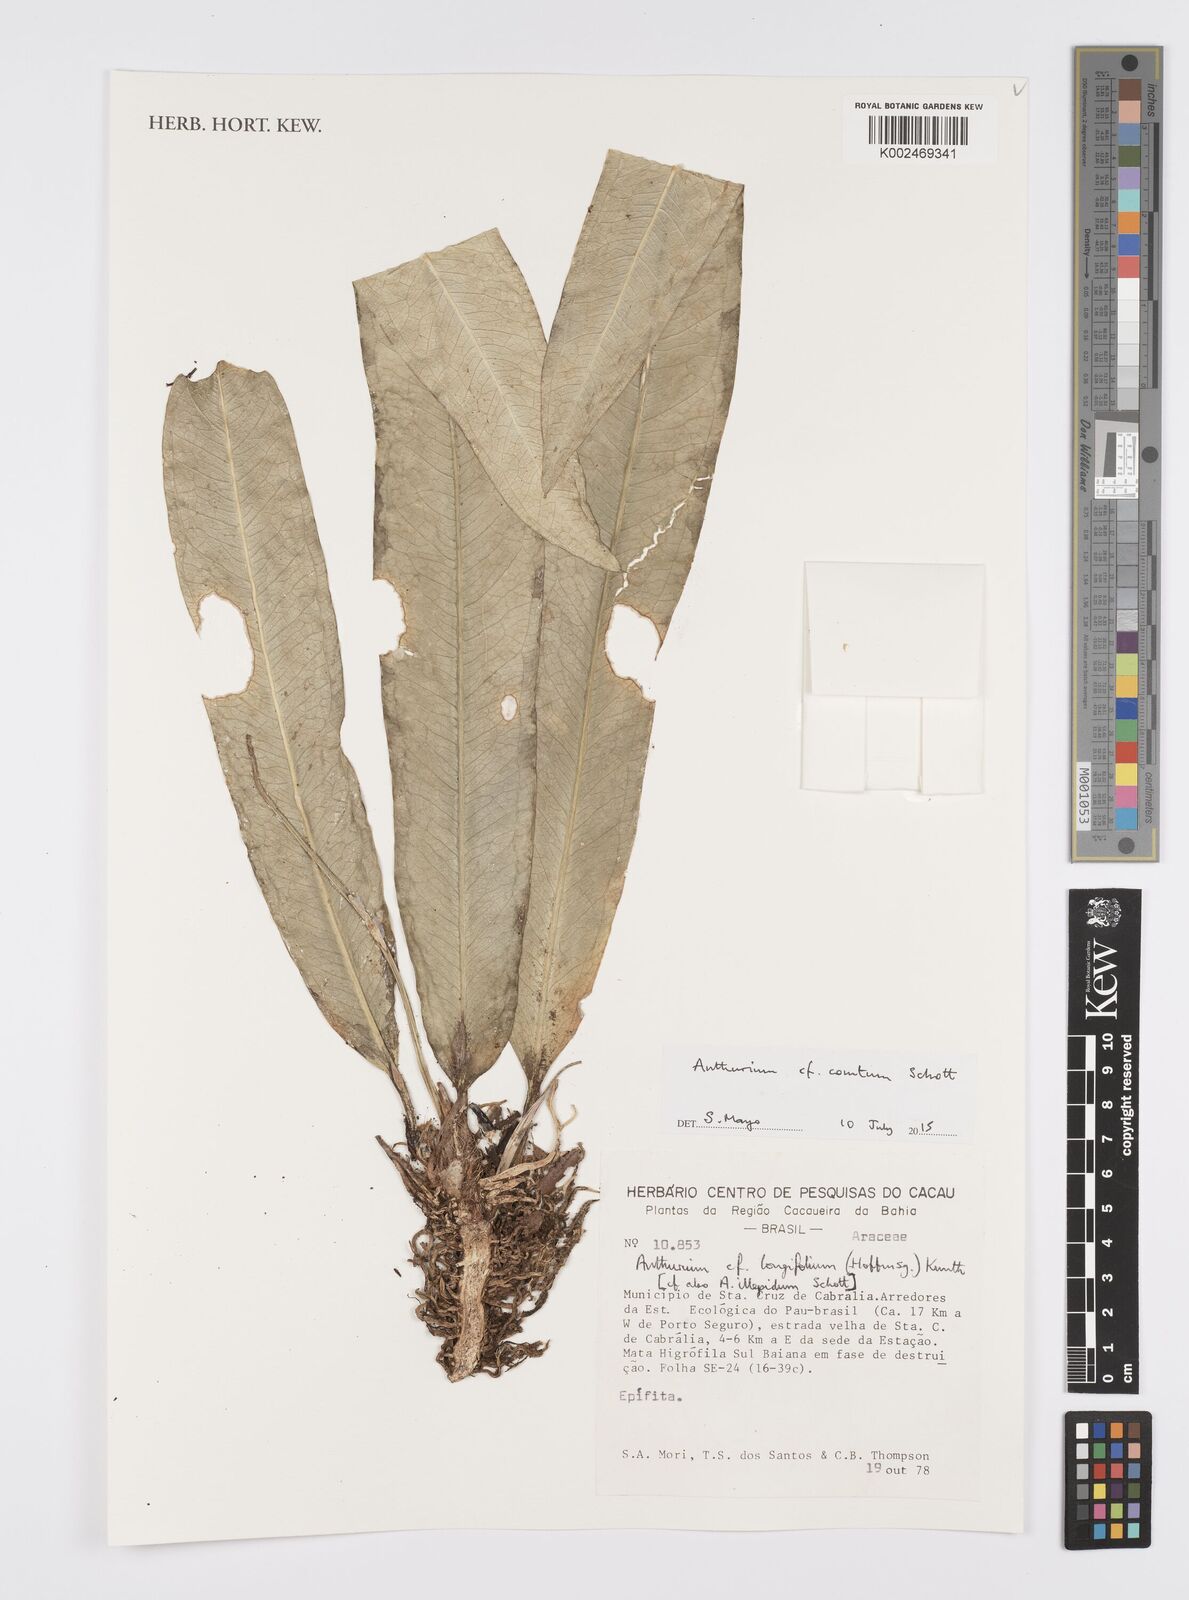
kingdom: Plantae
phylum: Tracheophyta
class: Liliopsida
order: Alismatales
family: Araceae
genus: Anthurium
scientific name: Anthurium comtum
